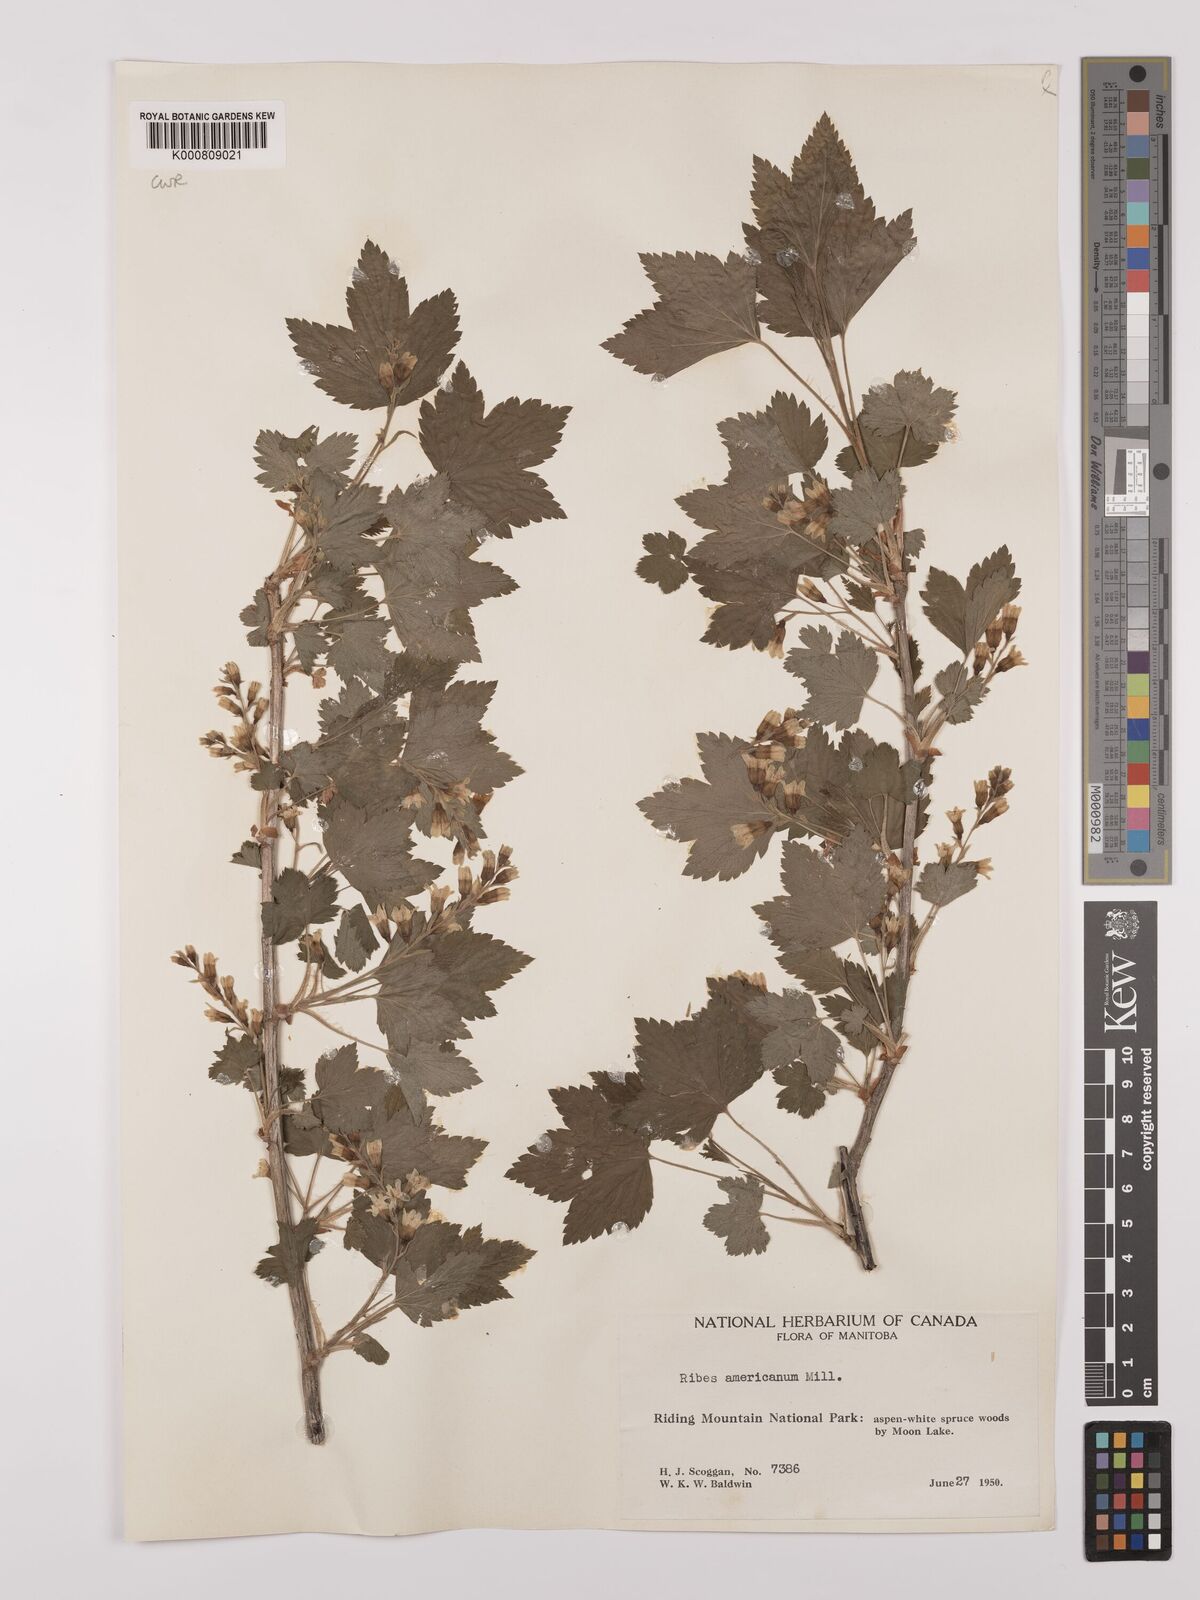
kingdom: Plantae
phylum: Tracheophyta
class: Magnoliopsida
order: Saxifragales
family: Grossulariaceae
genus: Ribes
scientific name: Ribes americanum
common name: American black currant
